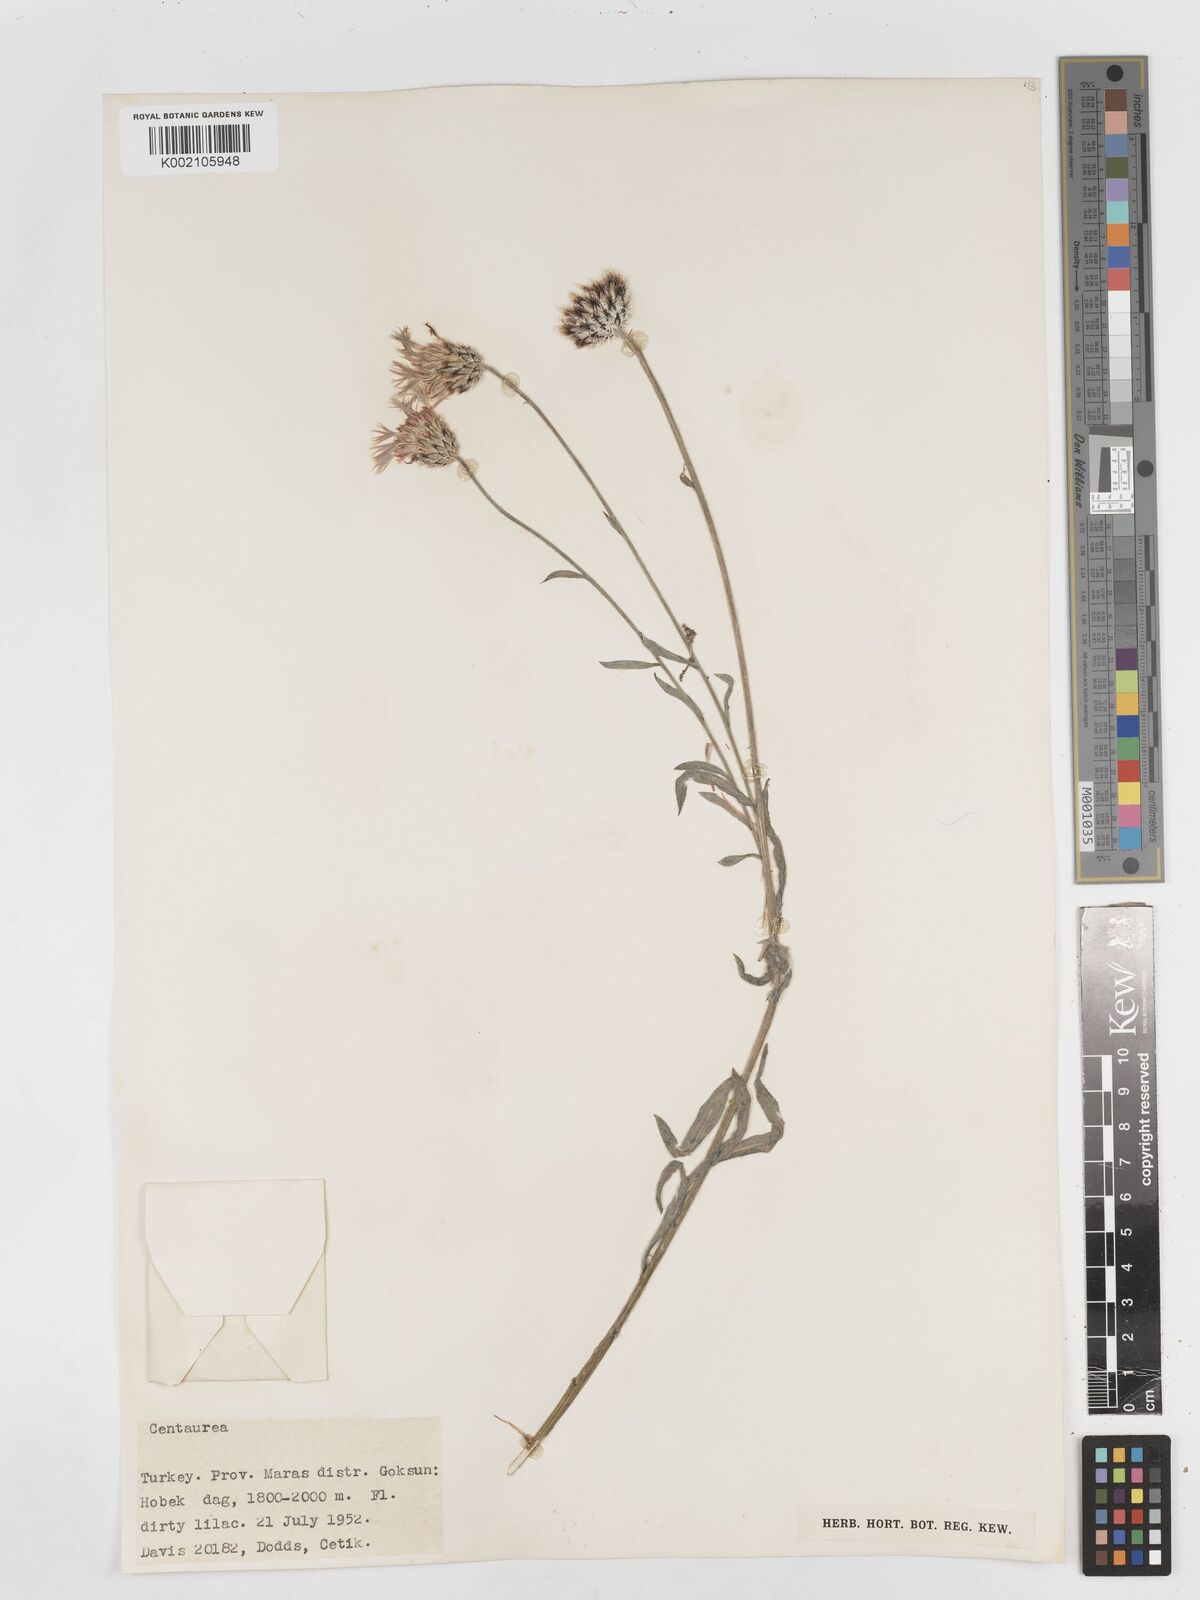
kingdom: Plantae
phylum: Tracheophyta
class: Magnoliopsida
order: Asterales
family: Asteraceae
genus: Centaurea
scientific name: Centaurea
